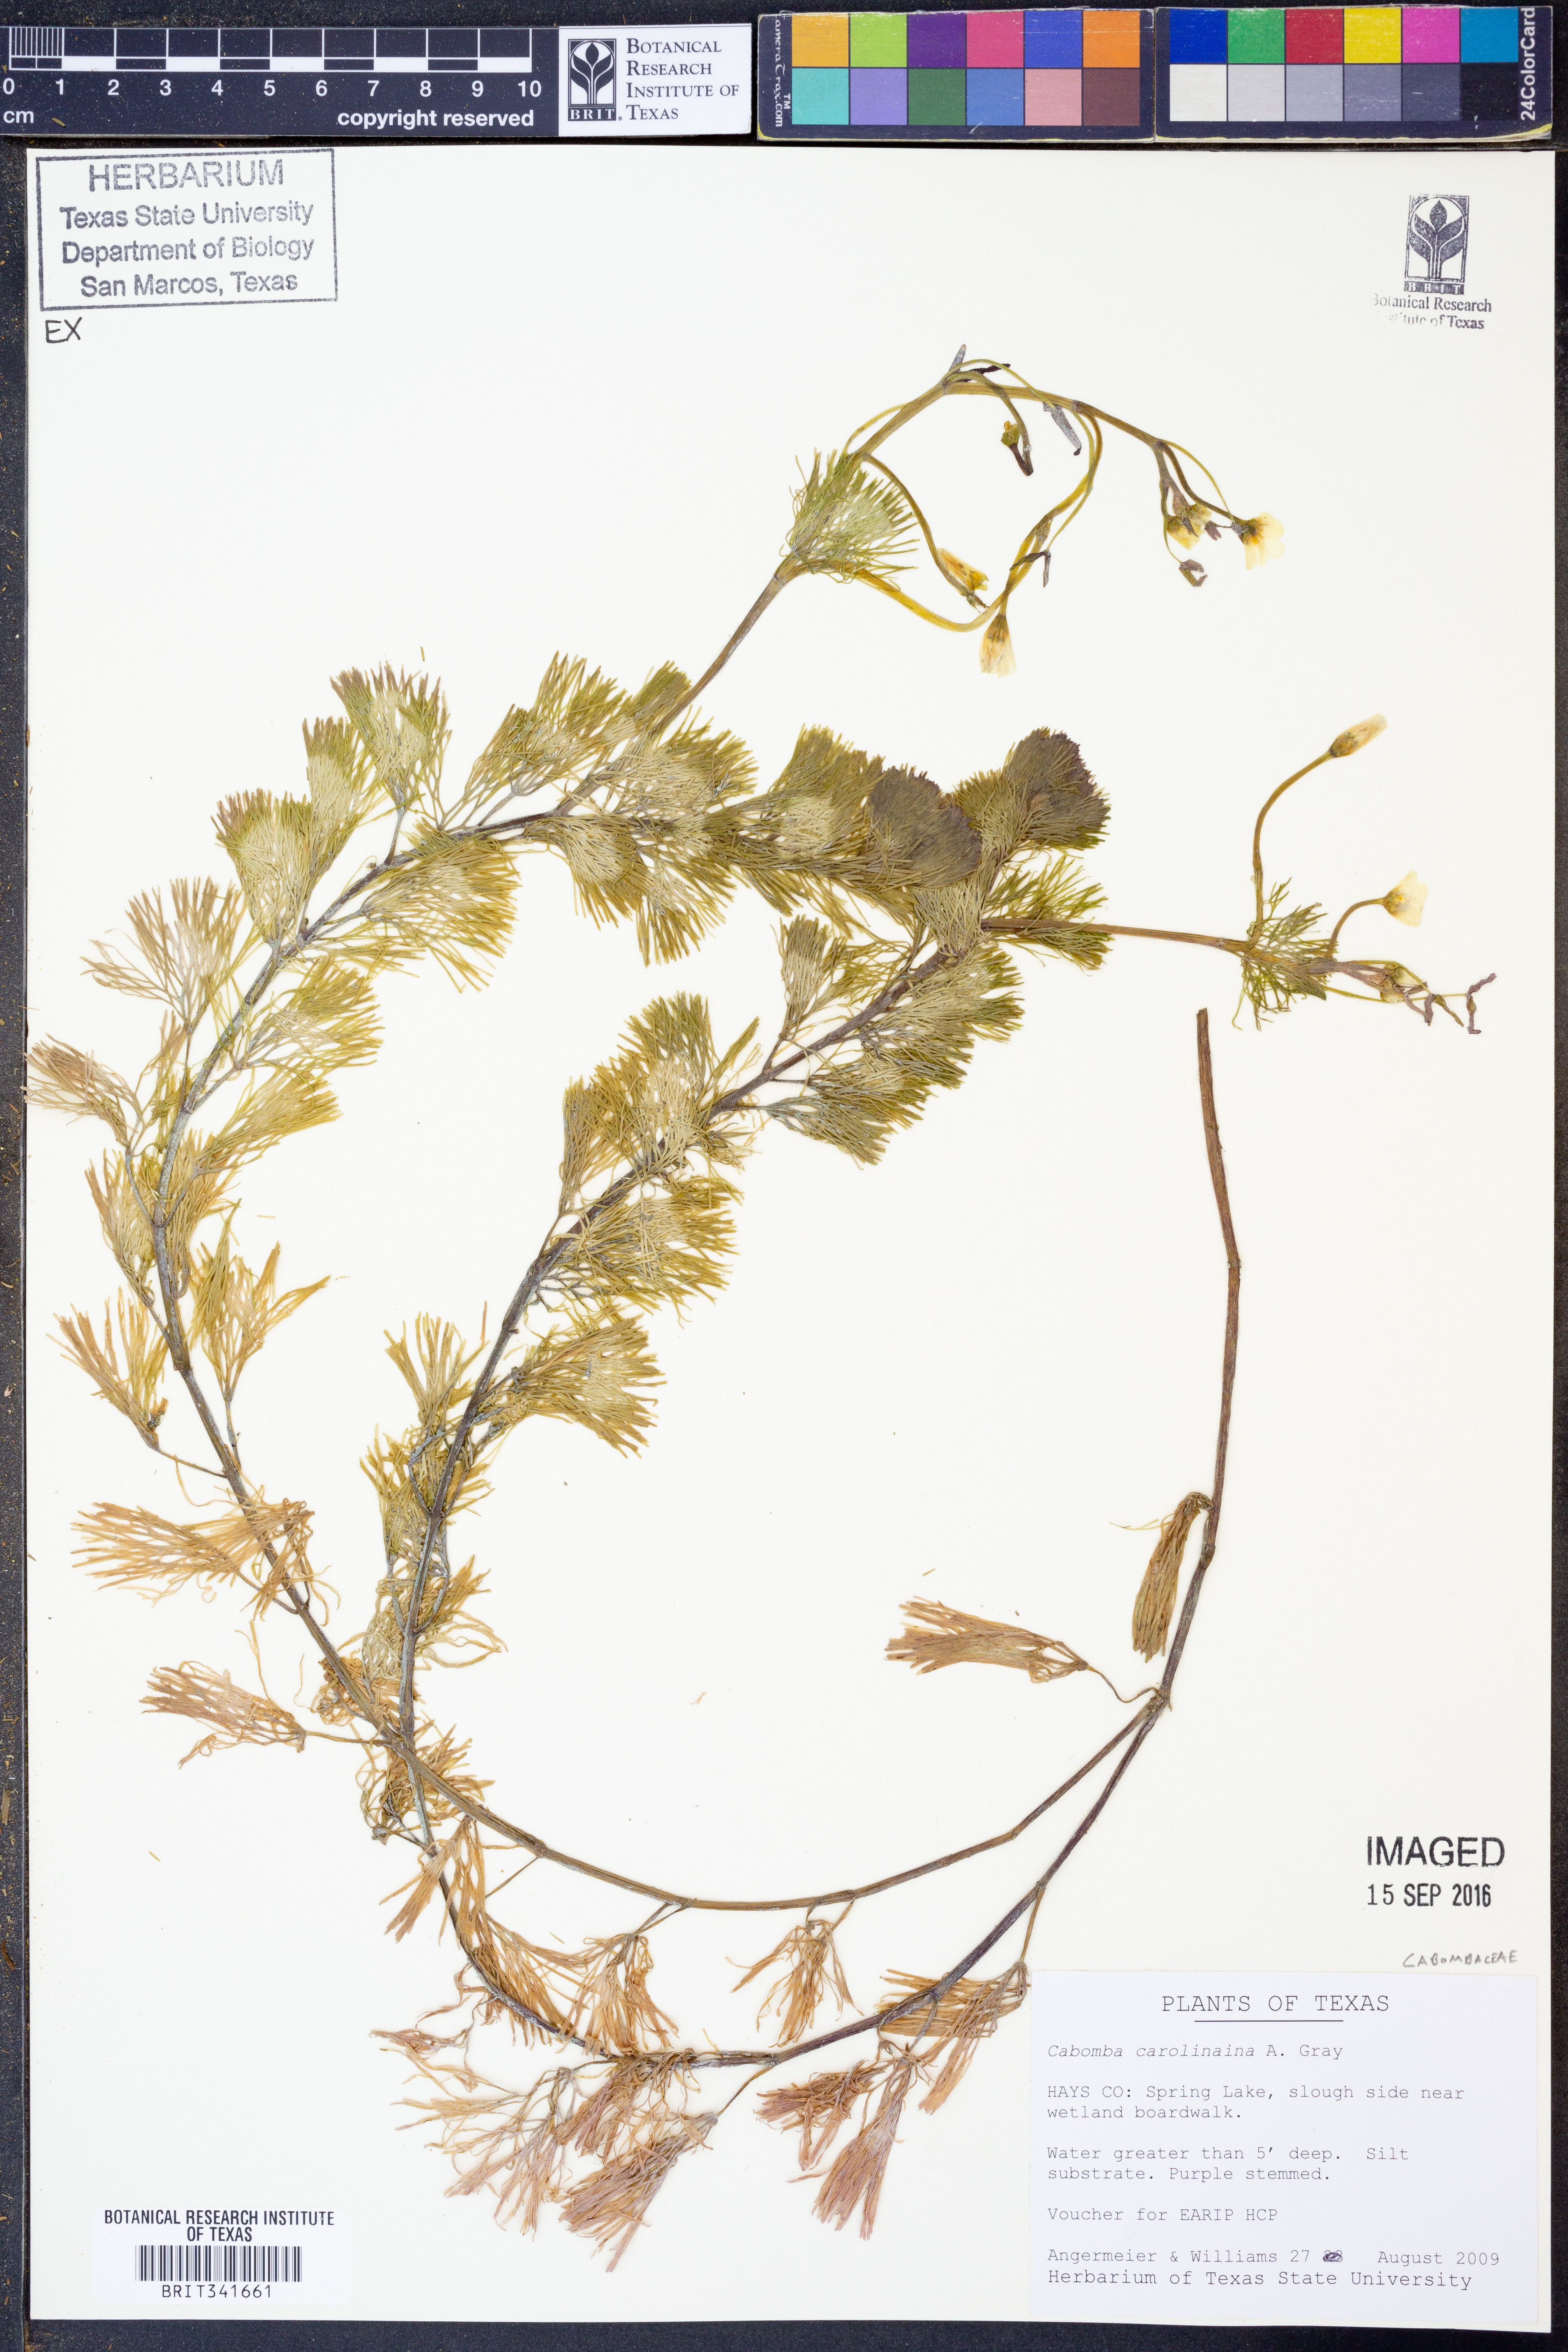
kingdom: Plantae
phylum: Tracheophyta
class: Magnoliopsida
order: Nymphaeales
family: Cabombaceae
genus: Cabomba
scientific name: Cabomba caroliniana
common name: Fanwort
